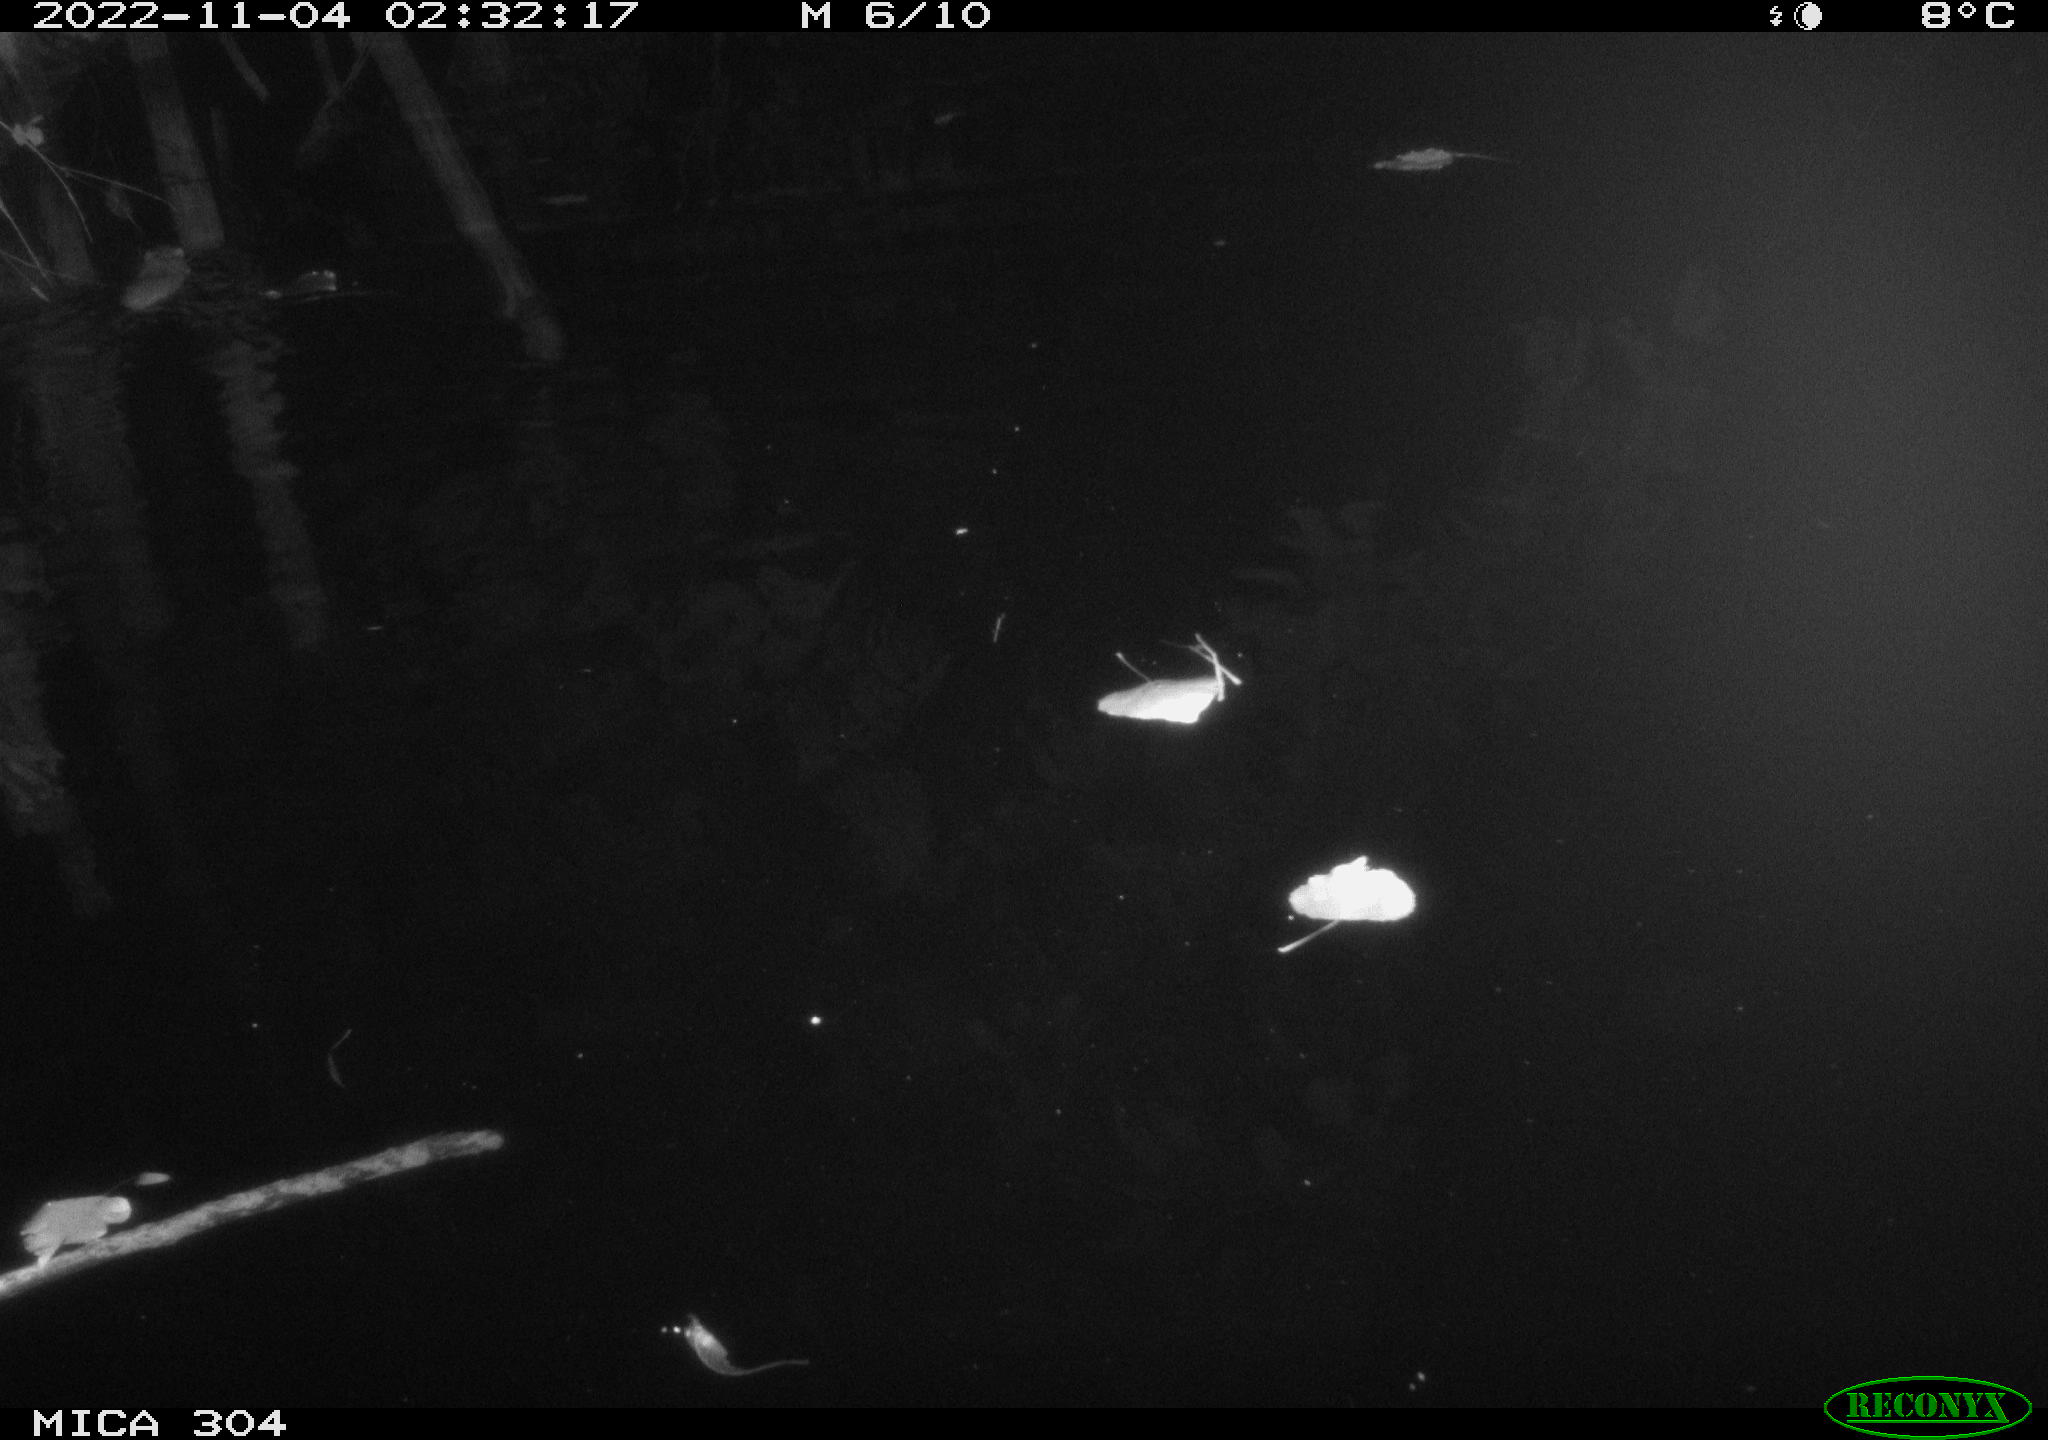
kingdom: Animalia
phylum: Chordata
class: Mammalia
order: Rodentia
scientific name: Rodentia
